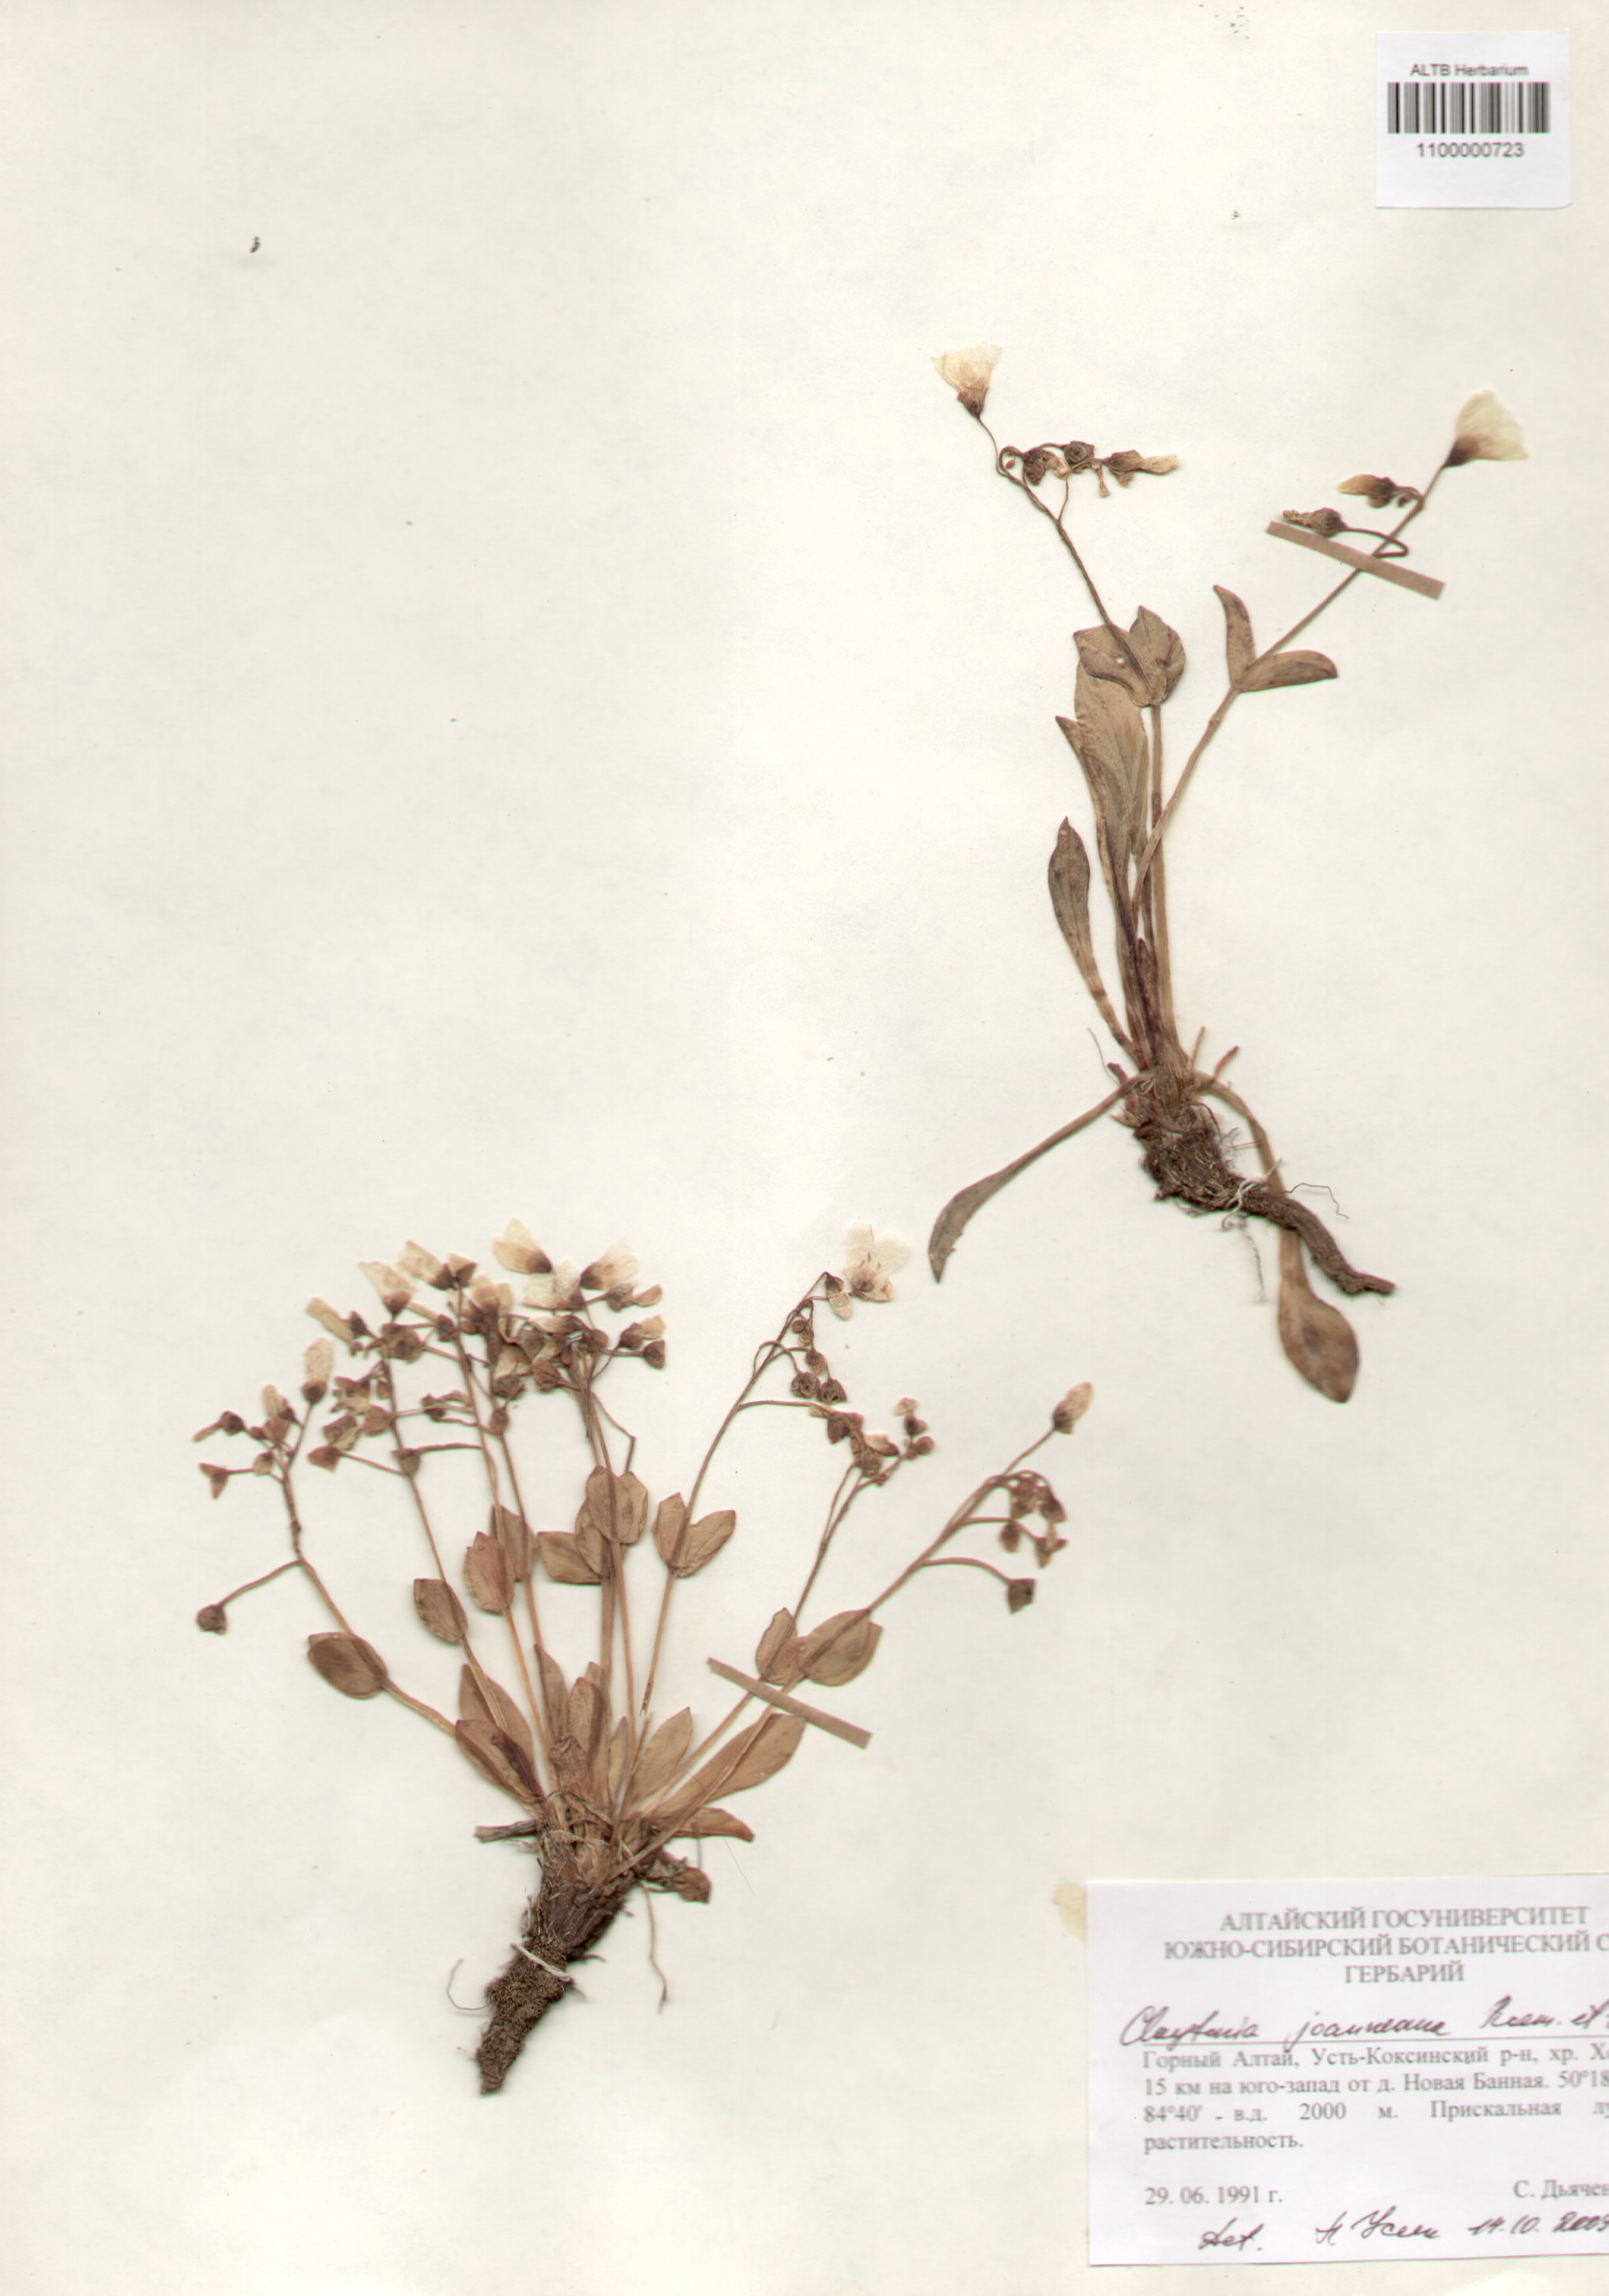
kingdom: Plantae
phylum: Tracheophyta
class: Magnoliopsida
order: Caryophyllales
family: Montiaceae
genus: Claytonia
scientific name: Claytonia joanneana
